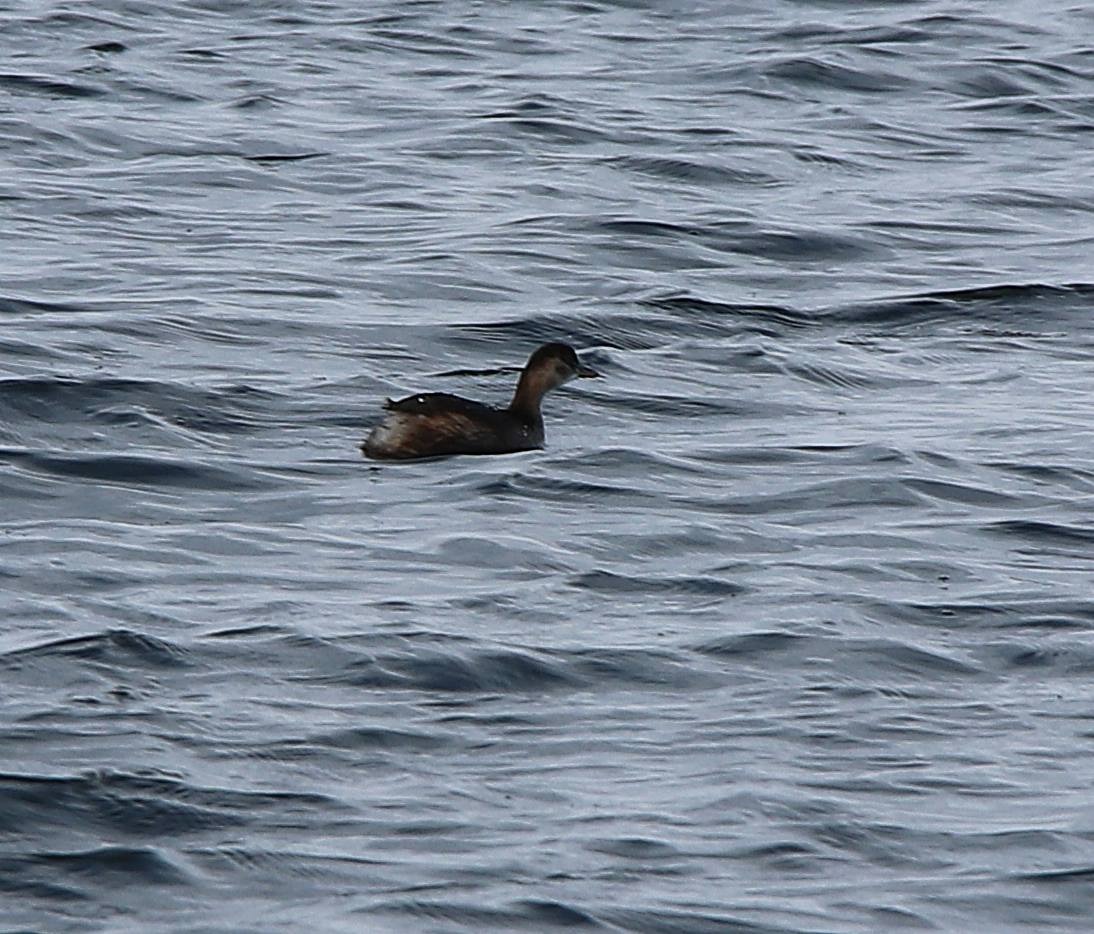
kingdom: Animalia
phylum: Chordata
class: Aves
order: Podicipediformes
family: Podicipedidae
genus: Tachybaptus
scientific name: Tachybaptus ruficollis
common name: Lille lappedykker
